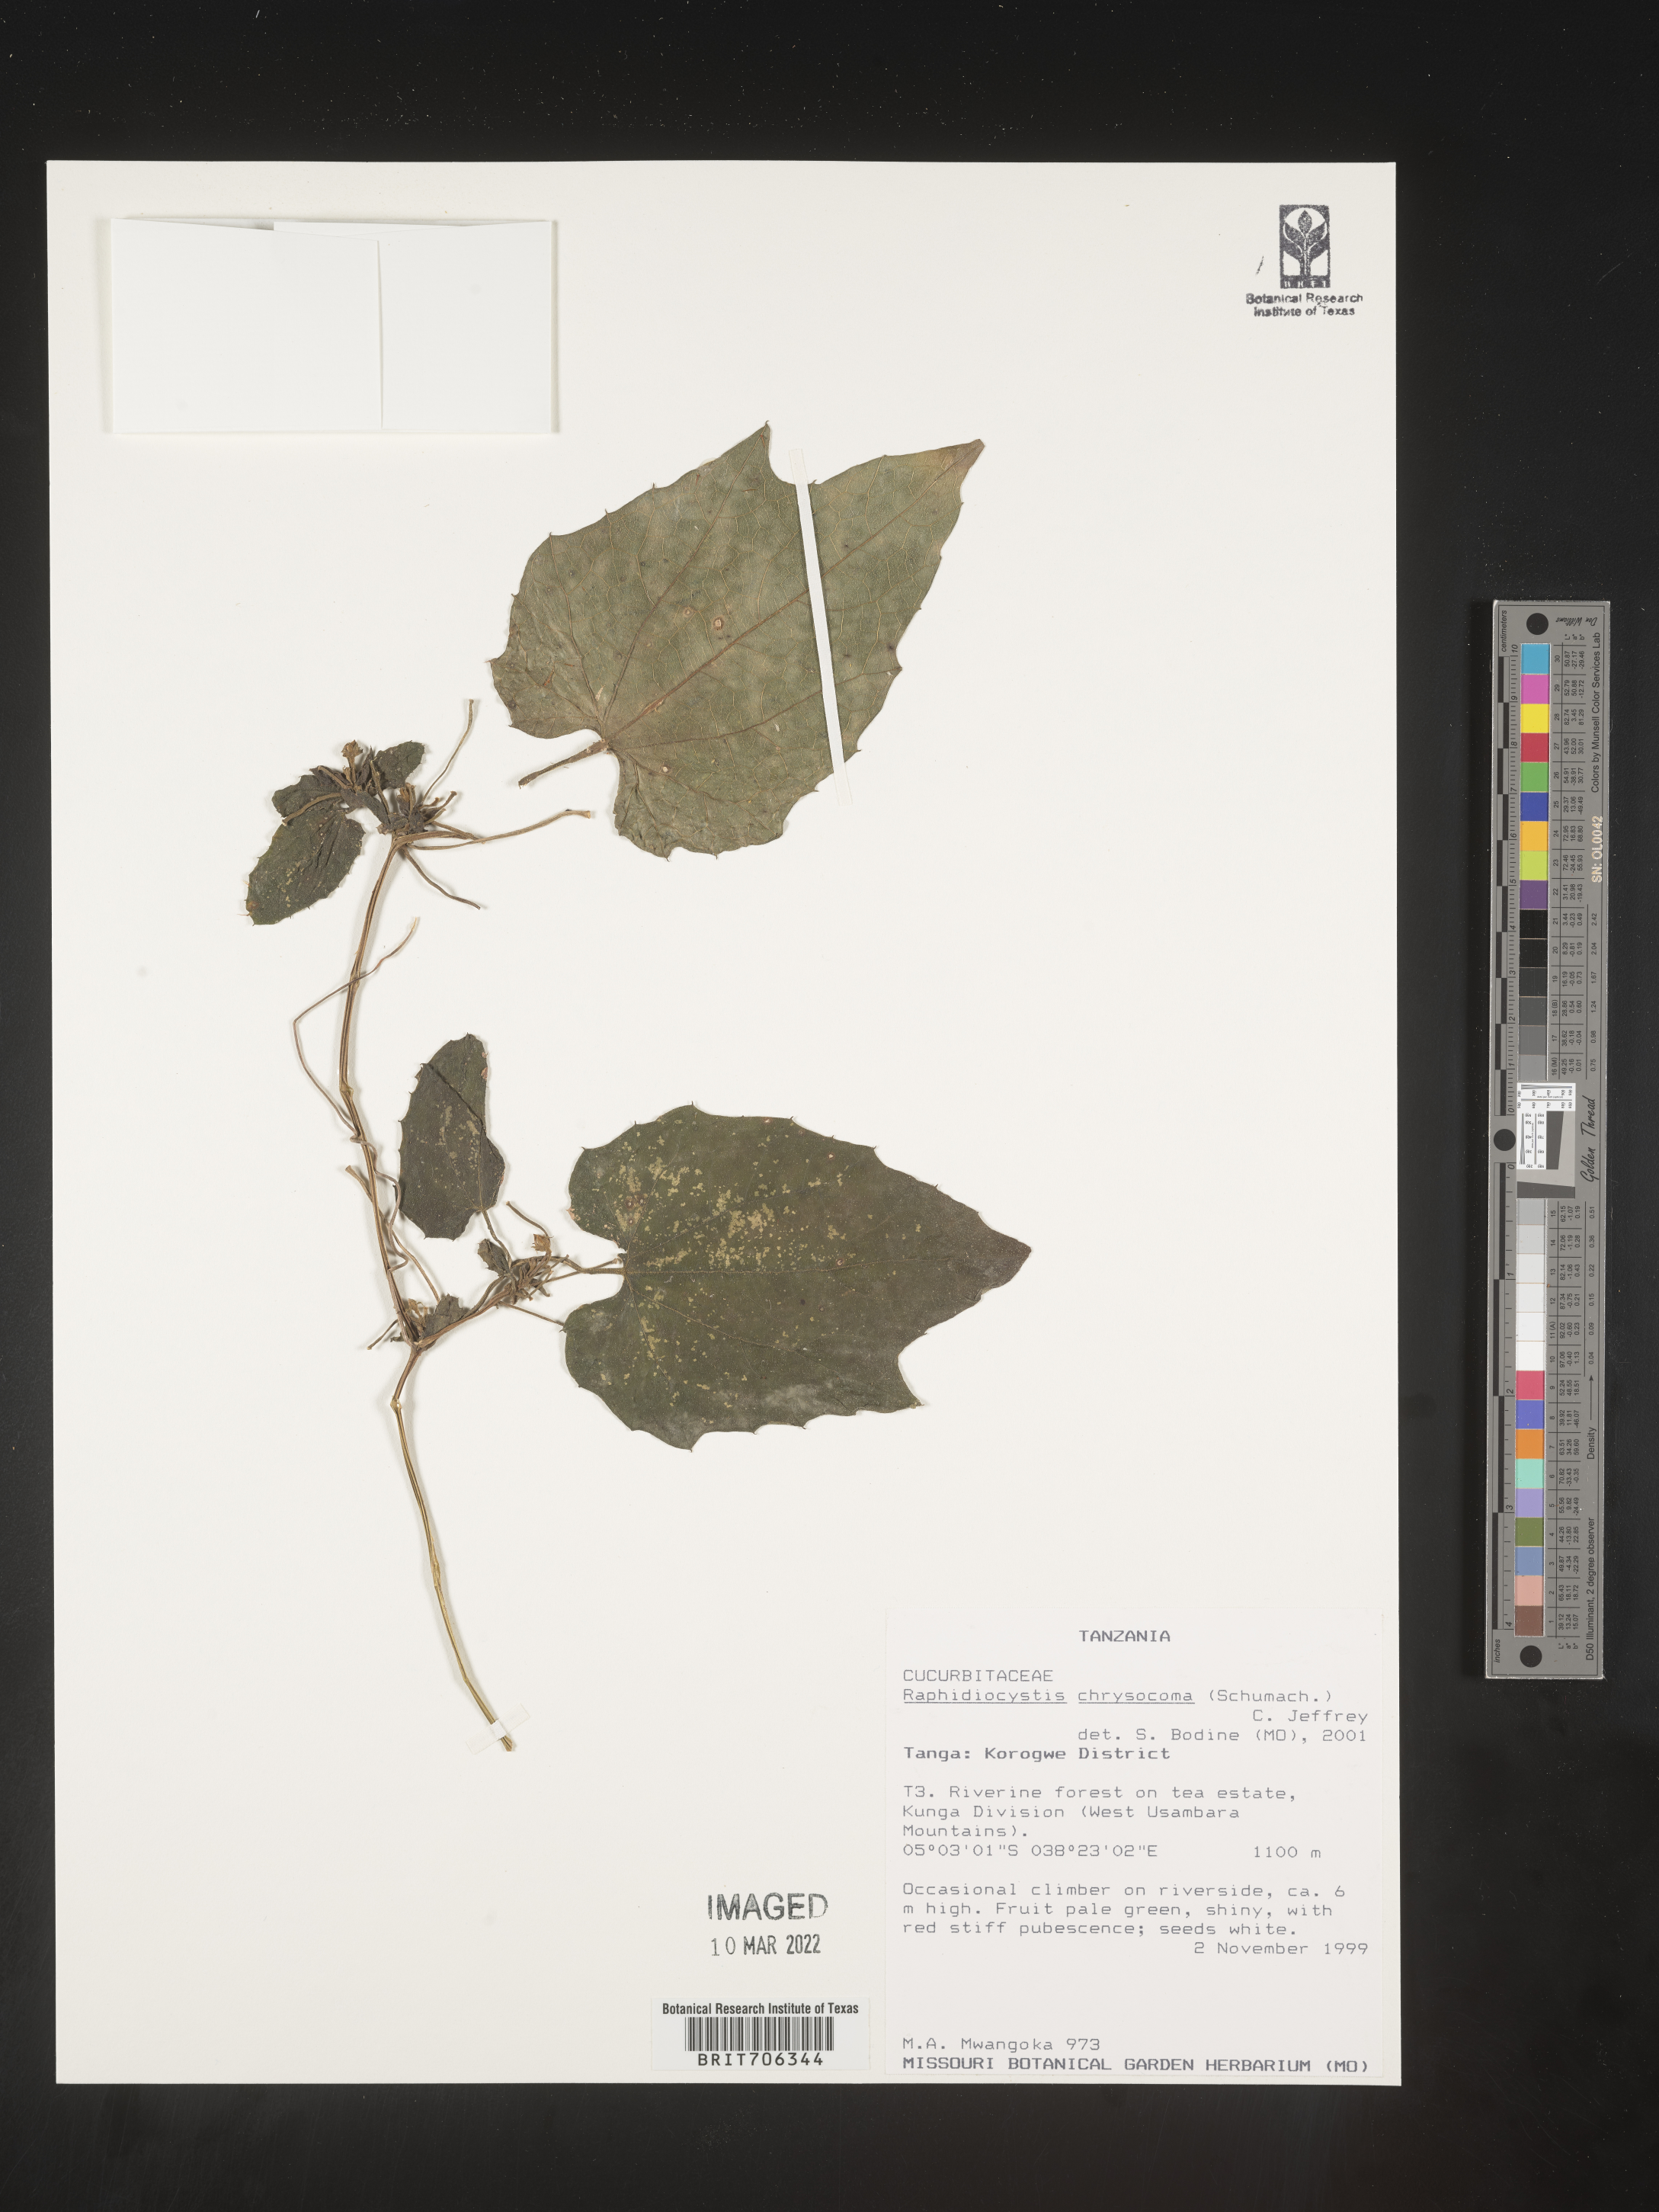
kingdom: Plantae
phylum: Tracheophyta
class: Magnoliopsida
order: Cucurbitales
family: Cucurbitaceae
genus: Raphidiocystis
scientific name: Raphidiocystis
